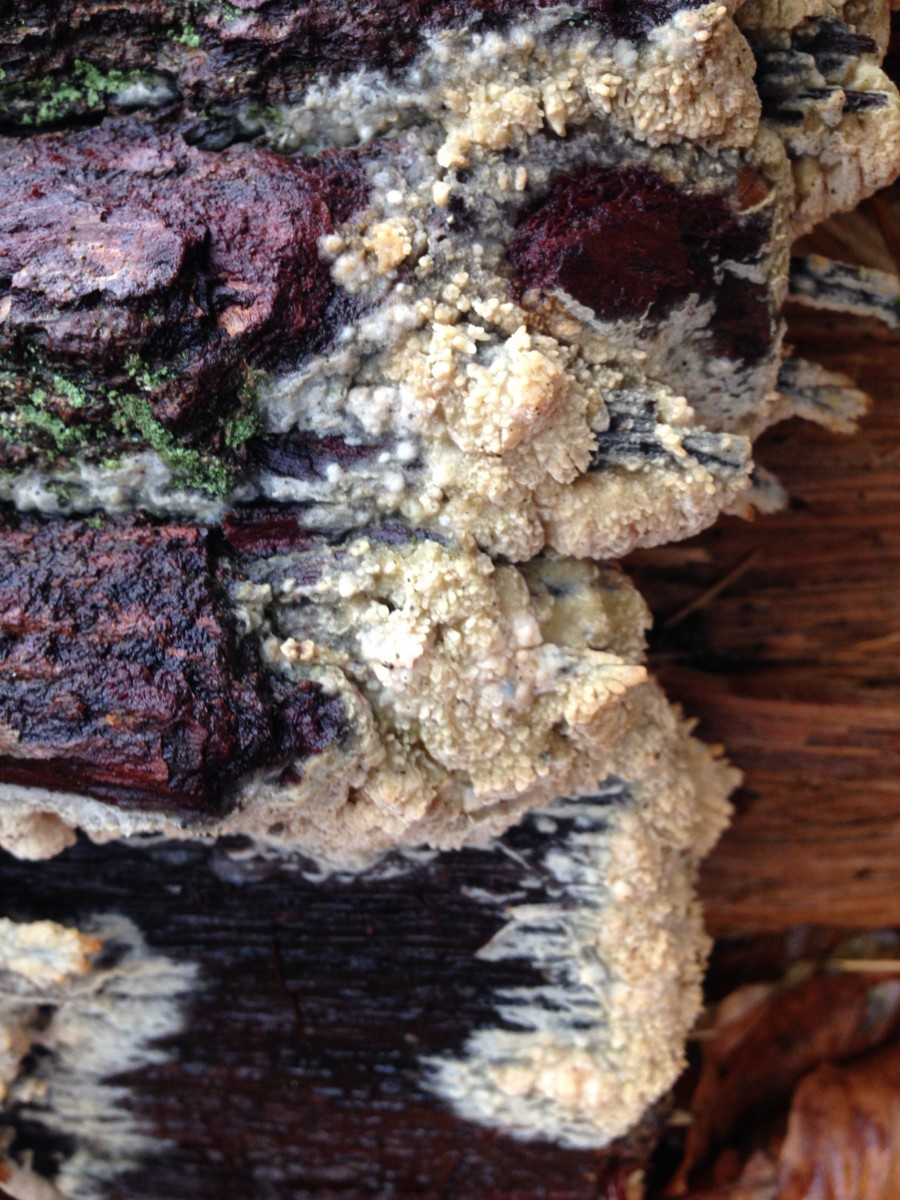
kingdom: Fungi
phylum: Basidiomycota
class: Agaricomycetes
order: Corticiales
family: Corticiaceae
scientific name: Corticiaceae
